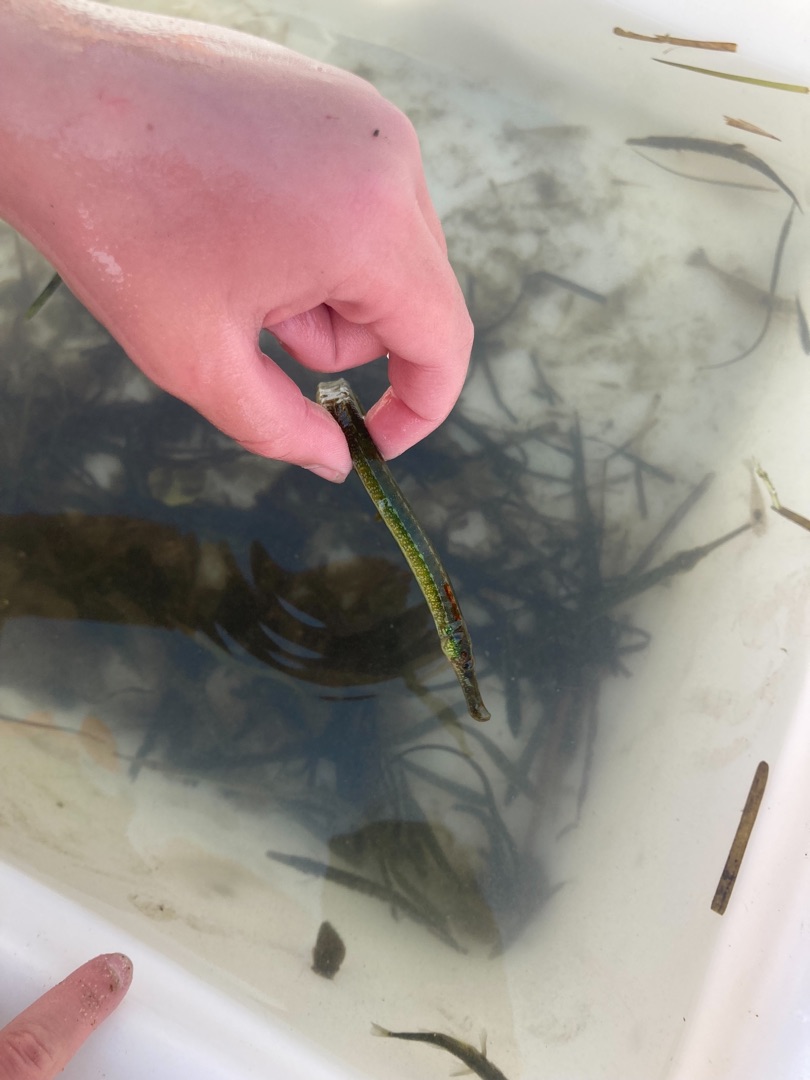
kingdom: Animalia
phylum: Chordata
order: Syngnathiformes
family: Syngnathidae
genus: Syngnathus
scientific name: Syngnathus typhle
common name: Almindelig tangnål
